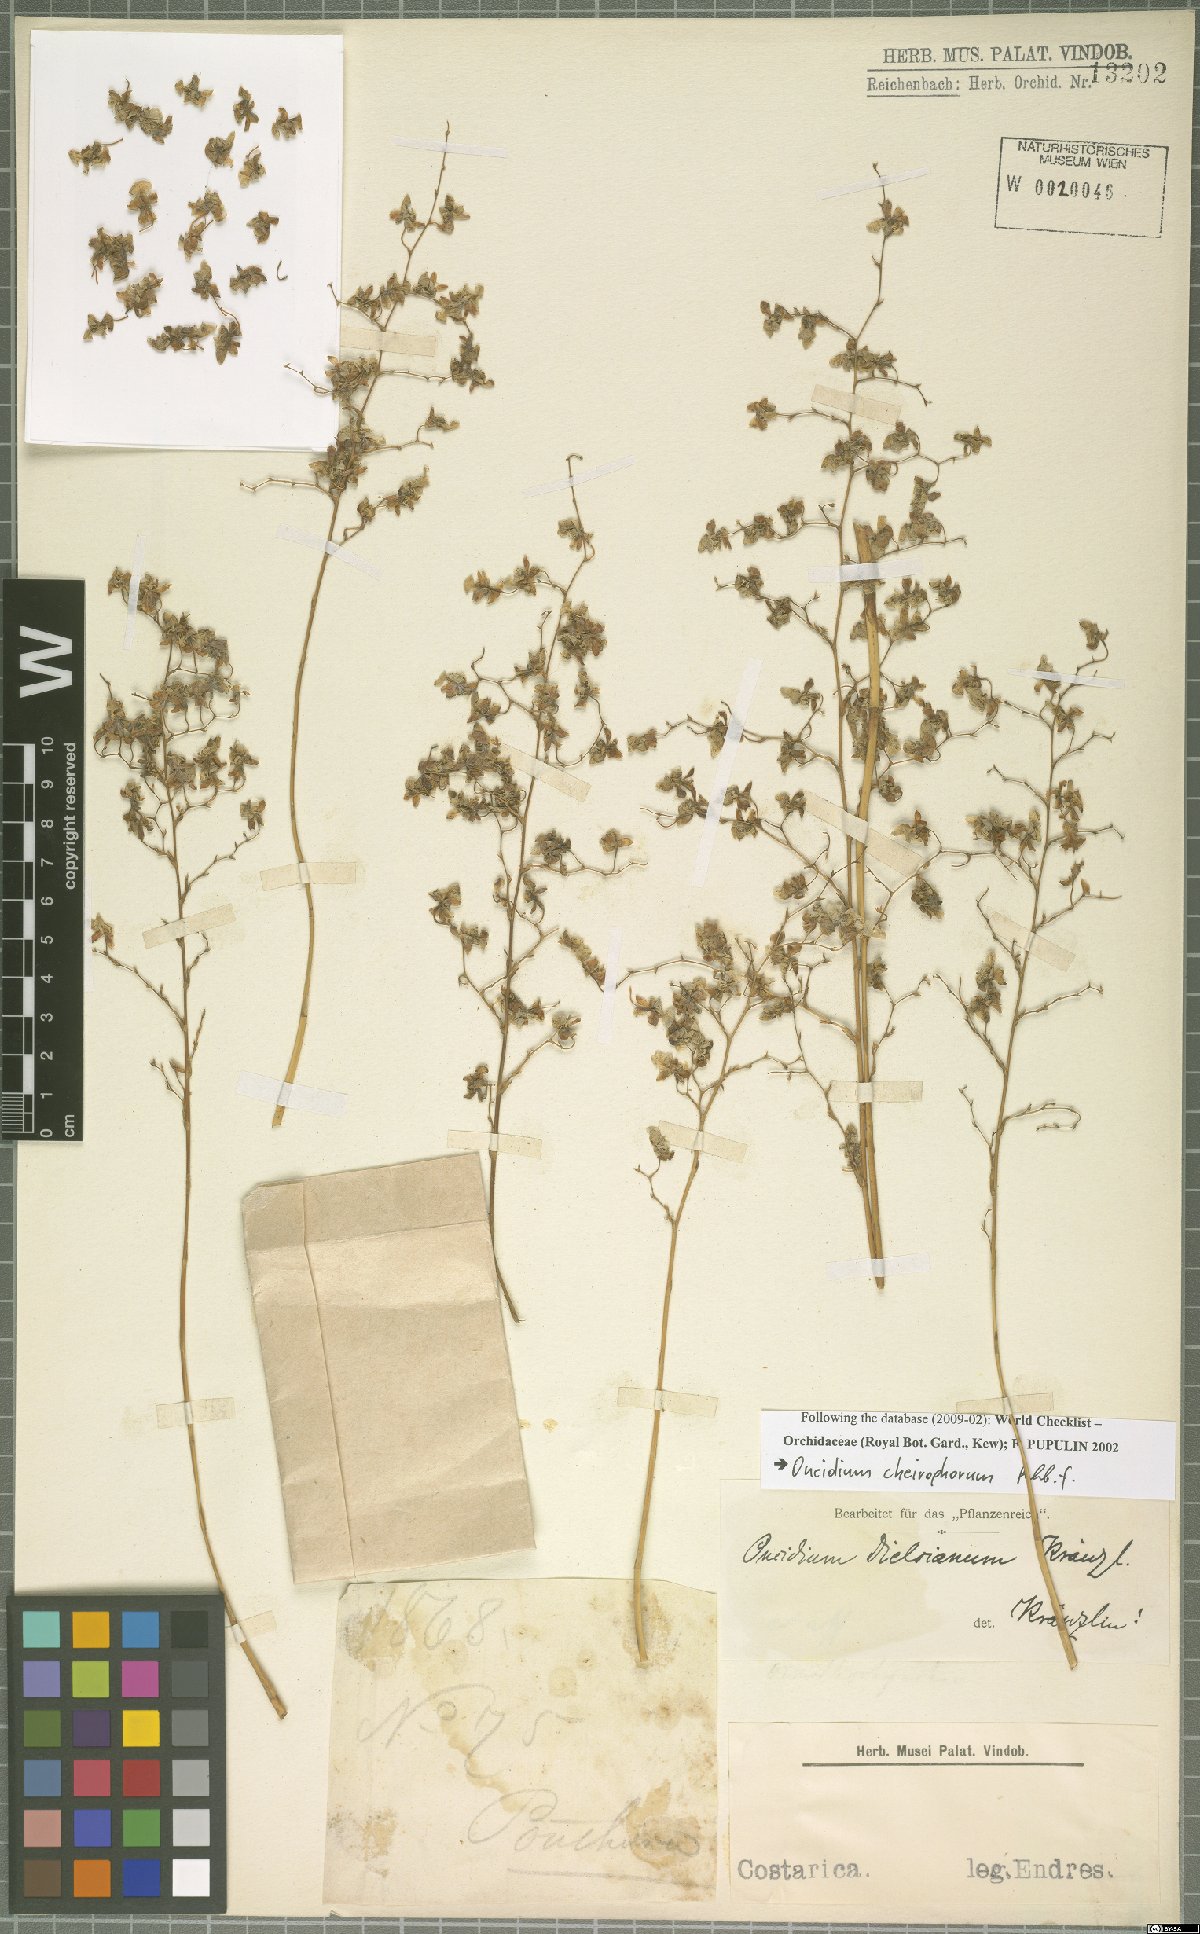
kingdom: Plantae
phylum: Tracheophyta
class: Liliopsida
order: Asparagales
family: Orchidaceae
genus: Oncidium
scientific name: Oncidium cheirophorum
